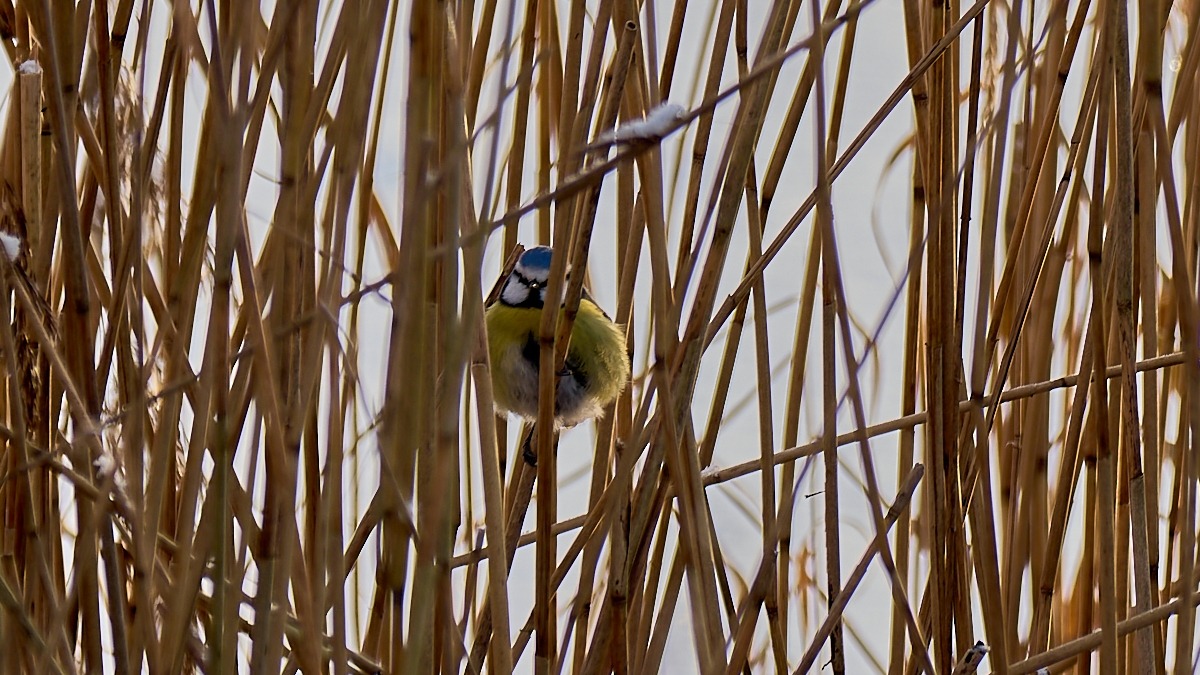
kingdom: Animalia
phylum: Chordata
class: Aves
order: Passeriformes
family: Paridae
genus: Cyanistes
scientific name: Cyanistes caeruleus
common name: Blåmejse
